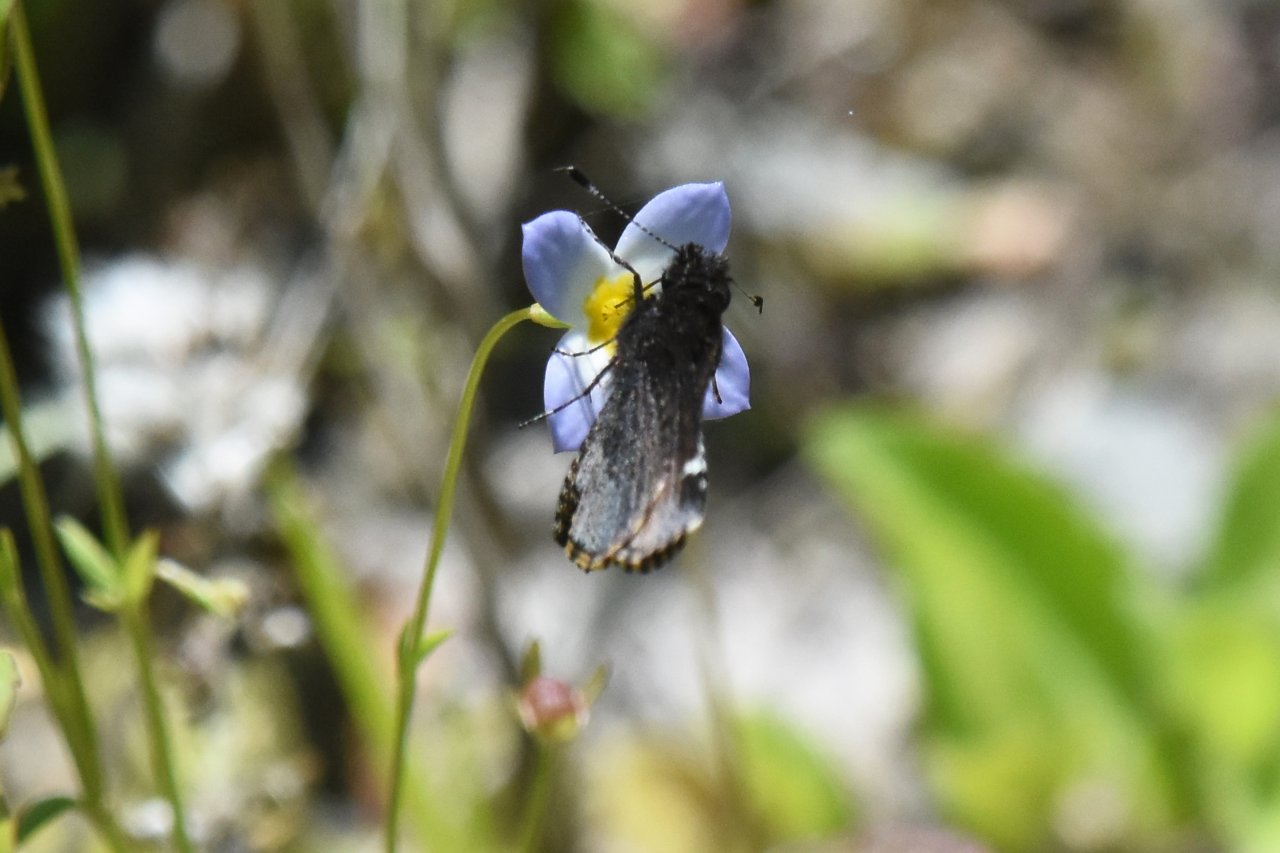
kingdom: Animalia
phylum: Arthropoda
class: Insecta
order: Lepidoptera
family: Hesperiidae
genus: Mastor
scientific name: Mastor vialis
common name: Common Roadside-Skipper
